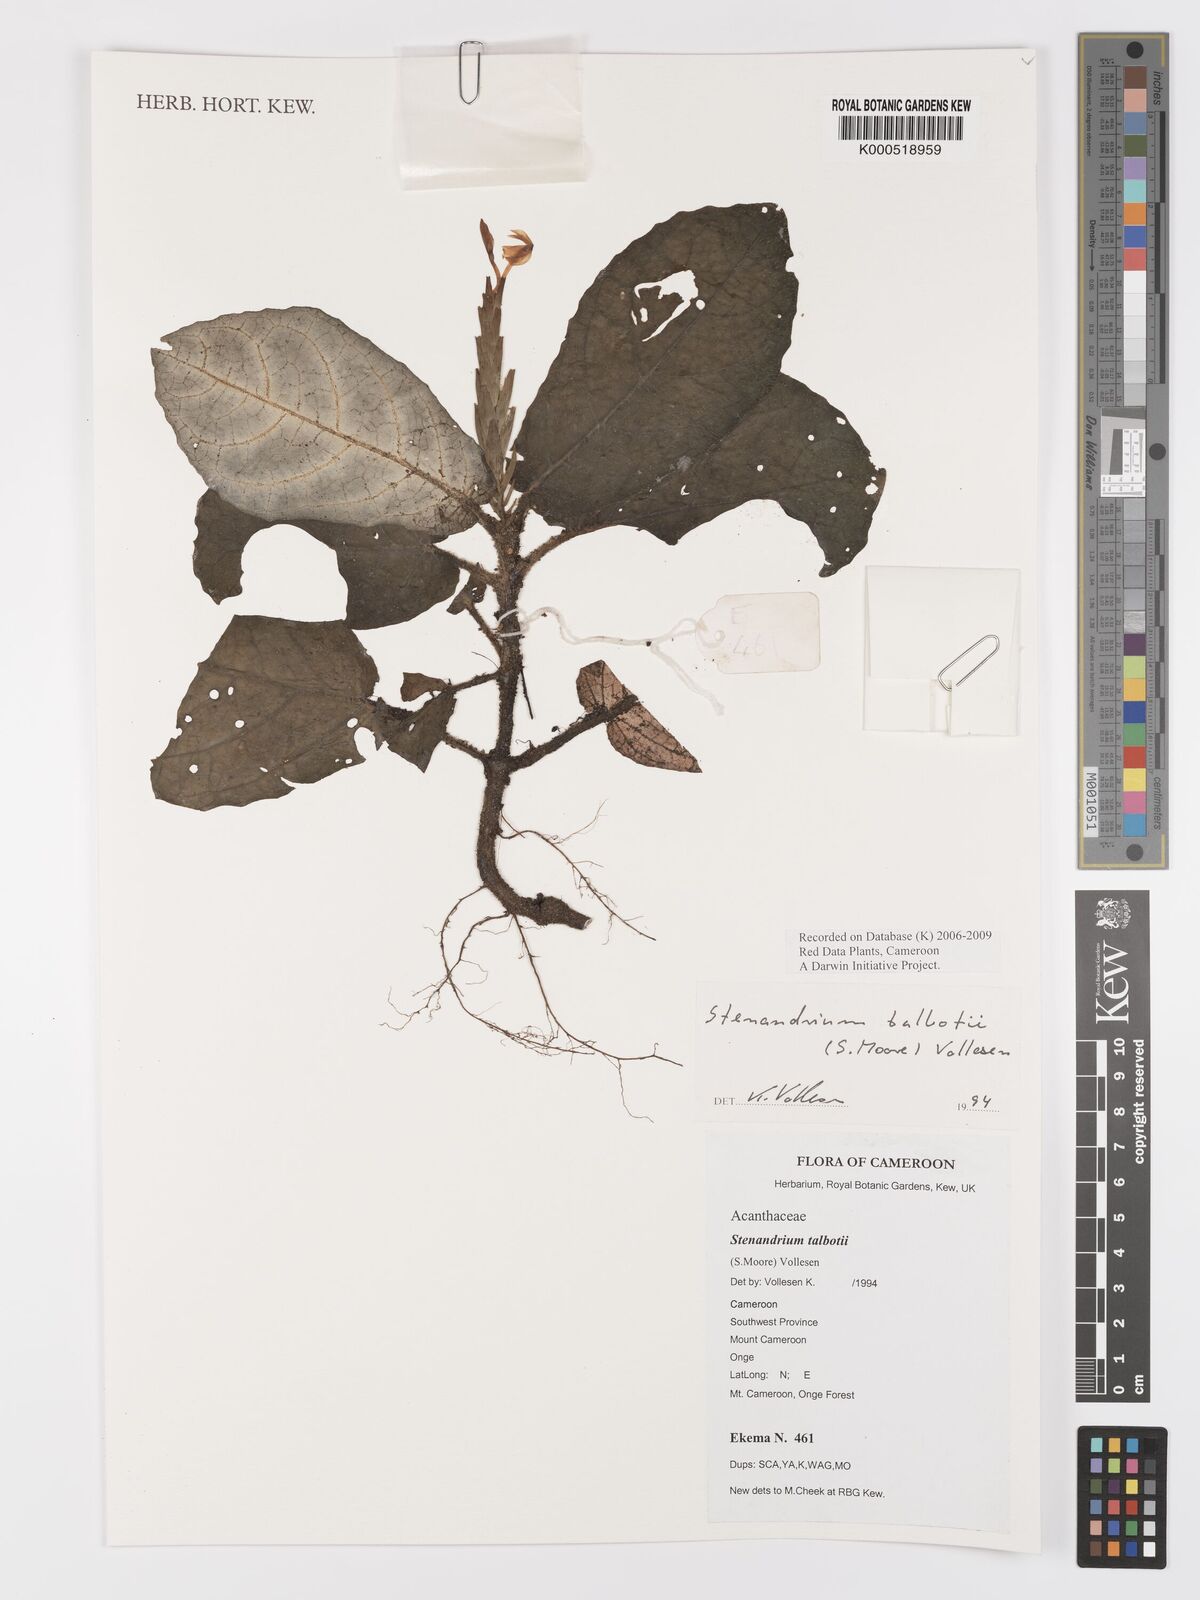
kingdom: Plantae
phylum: Tracheophyta
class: Magnoliopsida
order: Lamiales
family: Acanthaceae
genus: Stenandriopsis
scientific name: Stenandriopsis talbotii
